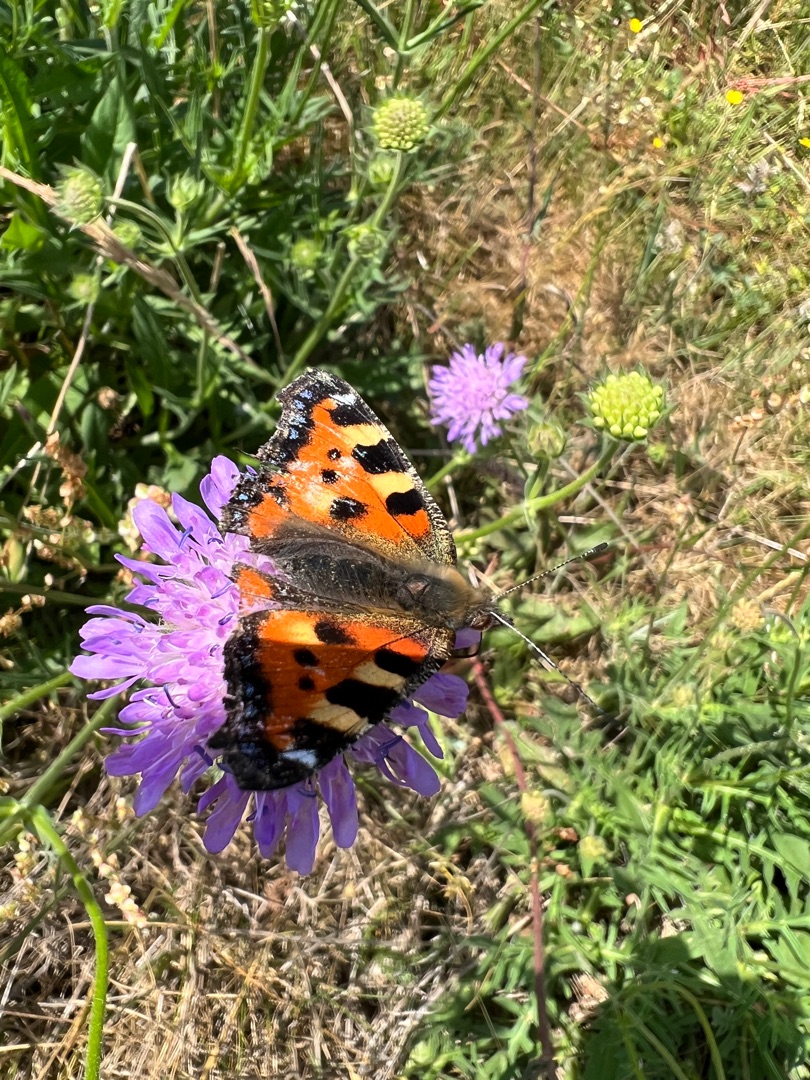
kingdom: Animalia
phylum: Arthropoda
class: Insecta
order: Lepidoptera
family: Nymphalidae
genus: Aglais
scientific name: Aglais urticae
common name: Nældens takvinge
